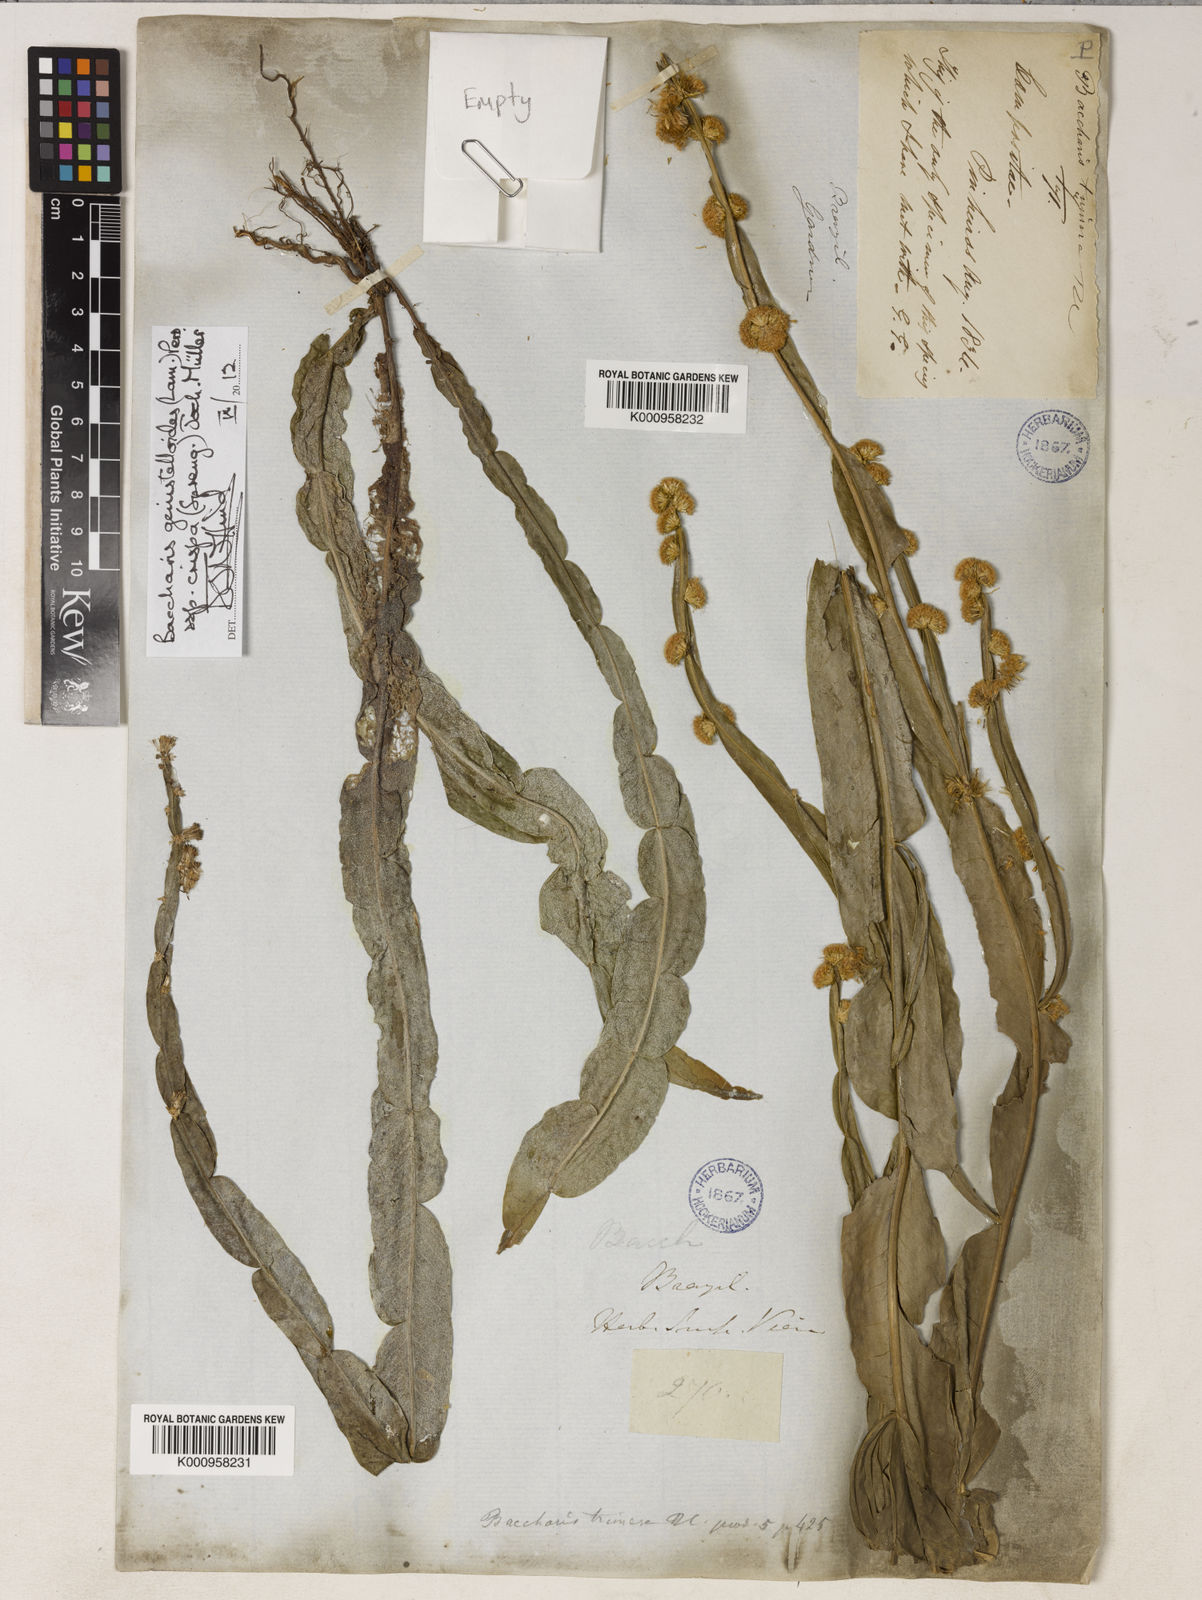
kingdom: Plantae
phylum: Tracheophyta
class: Magnoliopsida
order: Asterales
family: Asteraceae
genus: Baccharis
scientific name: Baccharis genistelloides
